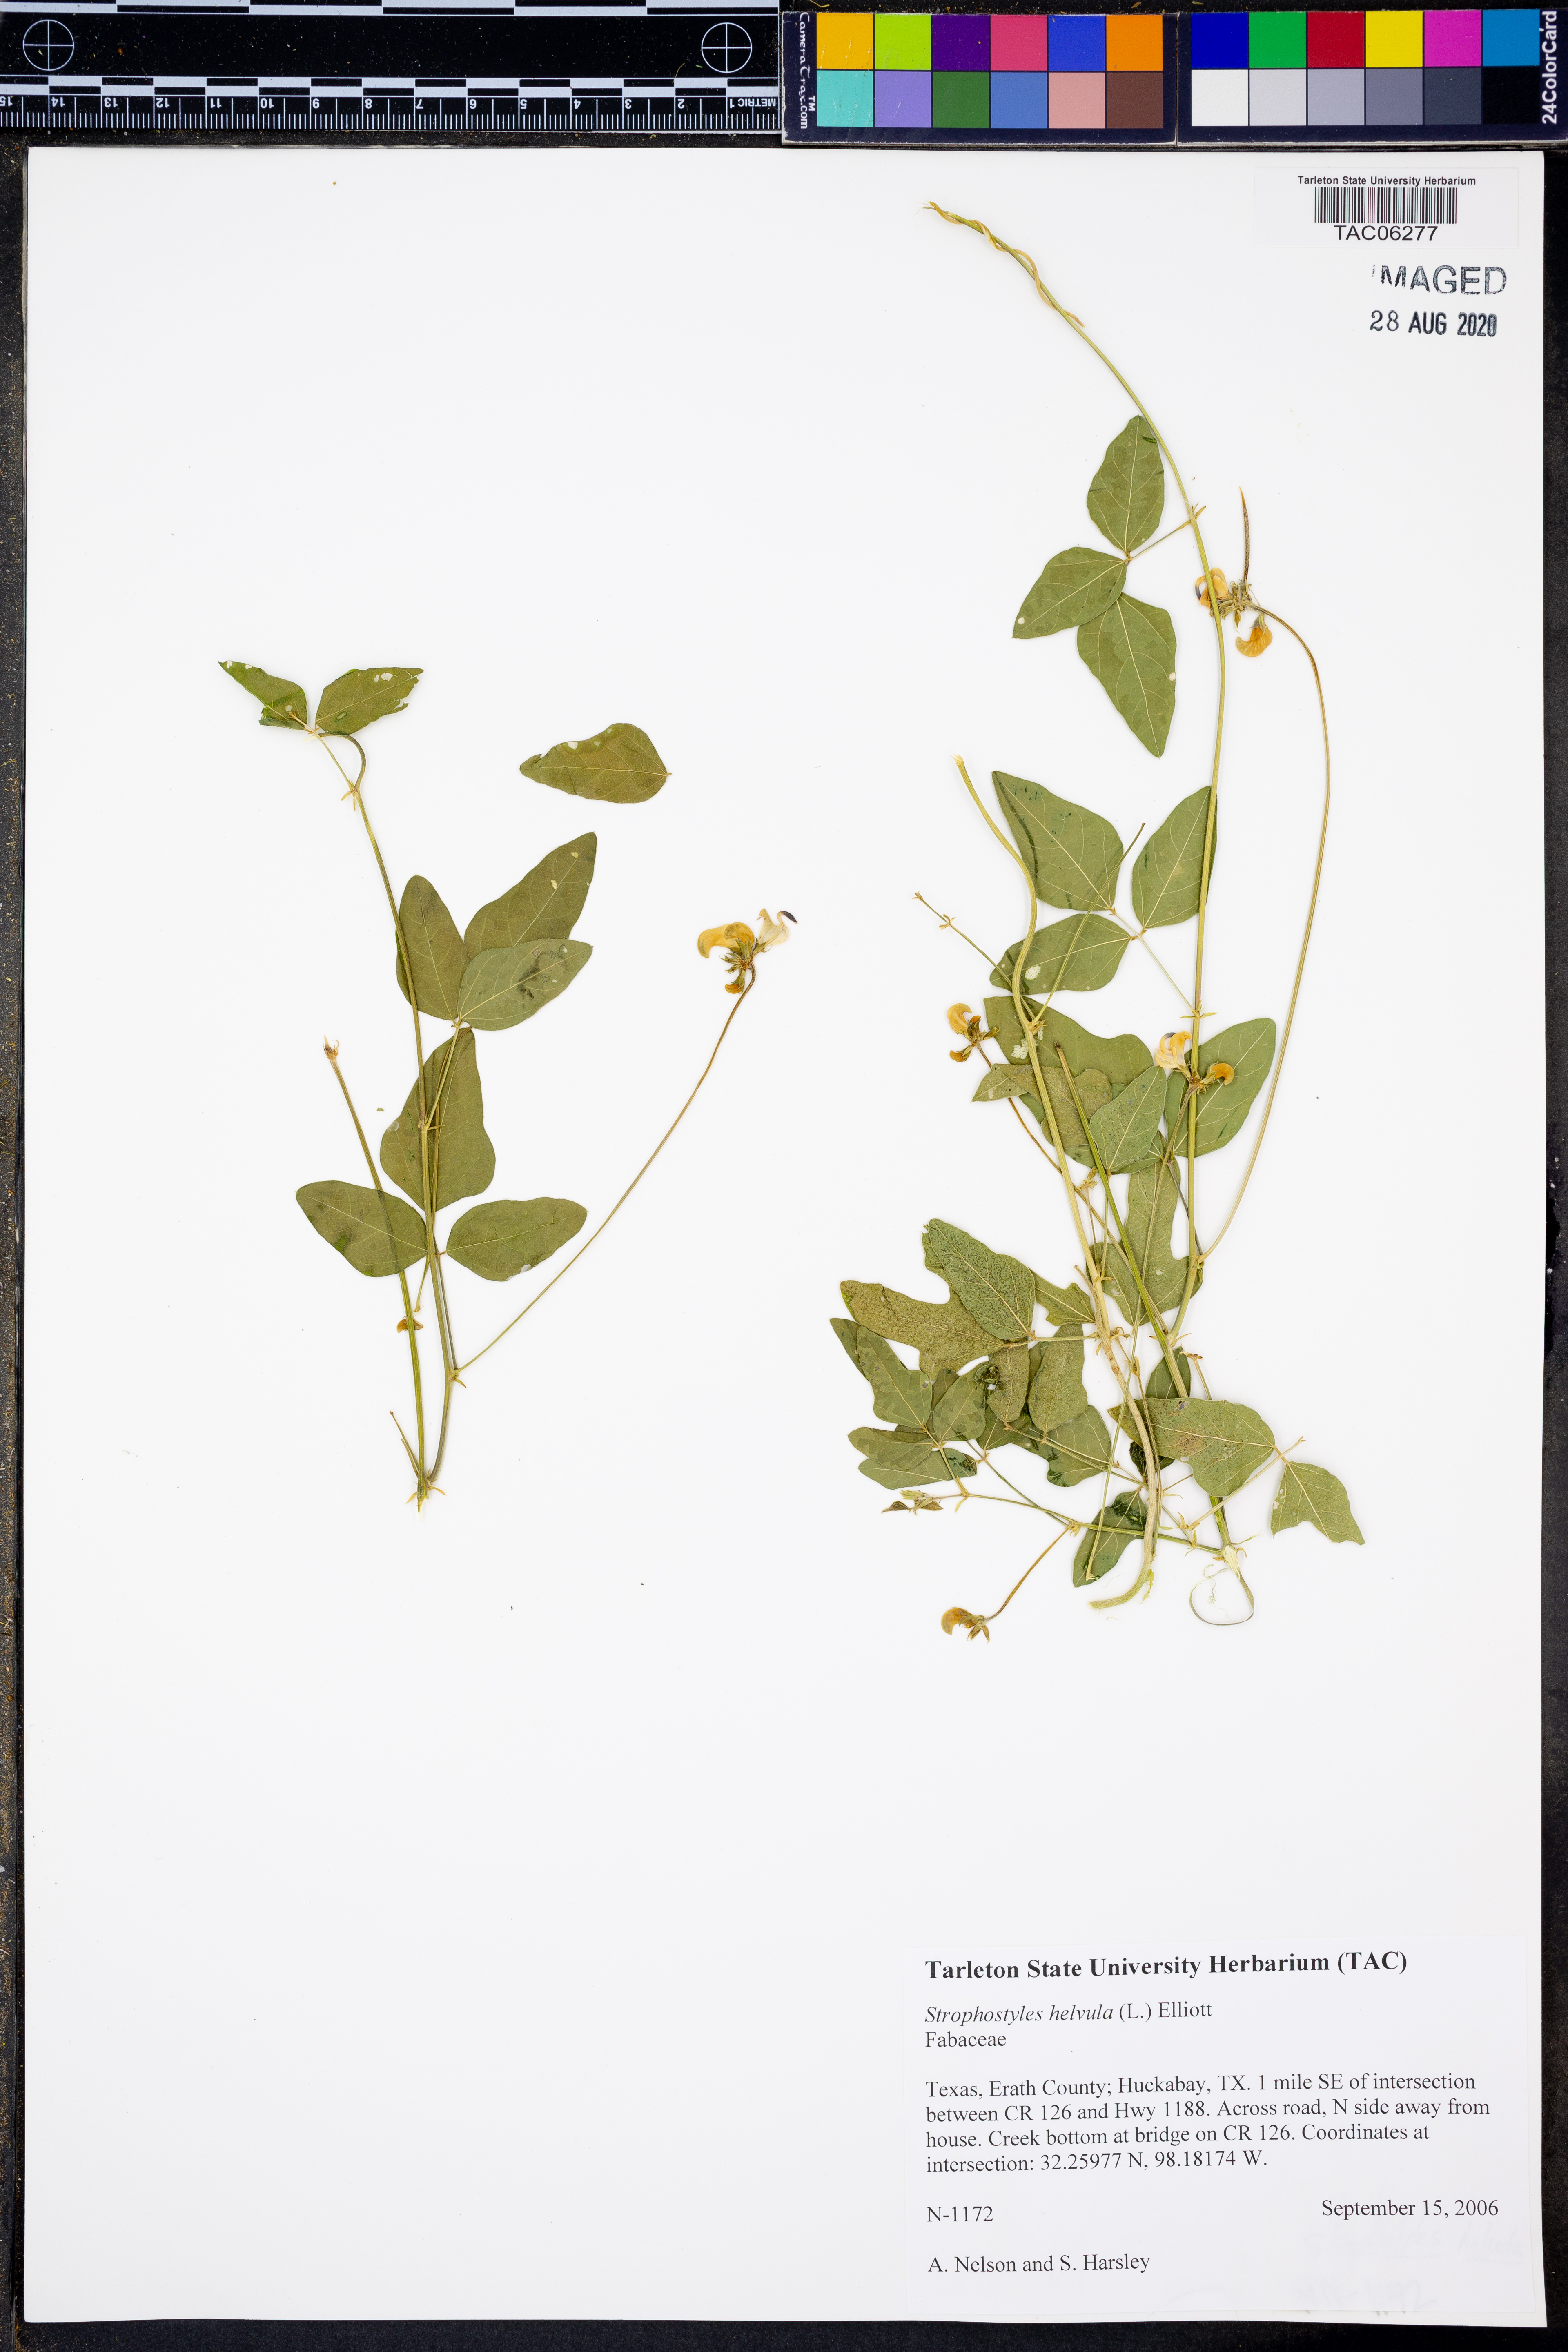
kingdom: Plantae
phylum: Tracheophyta
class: Magnoliopsida
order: Fabales
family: Fabaceae
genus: Strophostyles
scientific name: Strophostyles helvola
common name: Trailing wild bean
